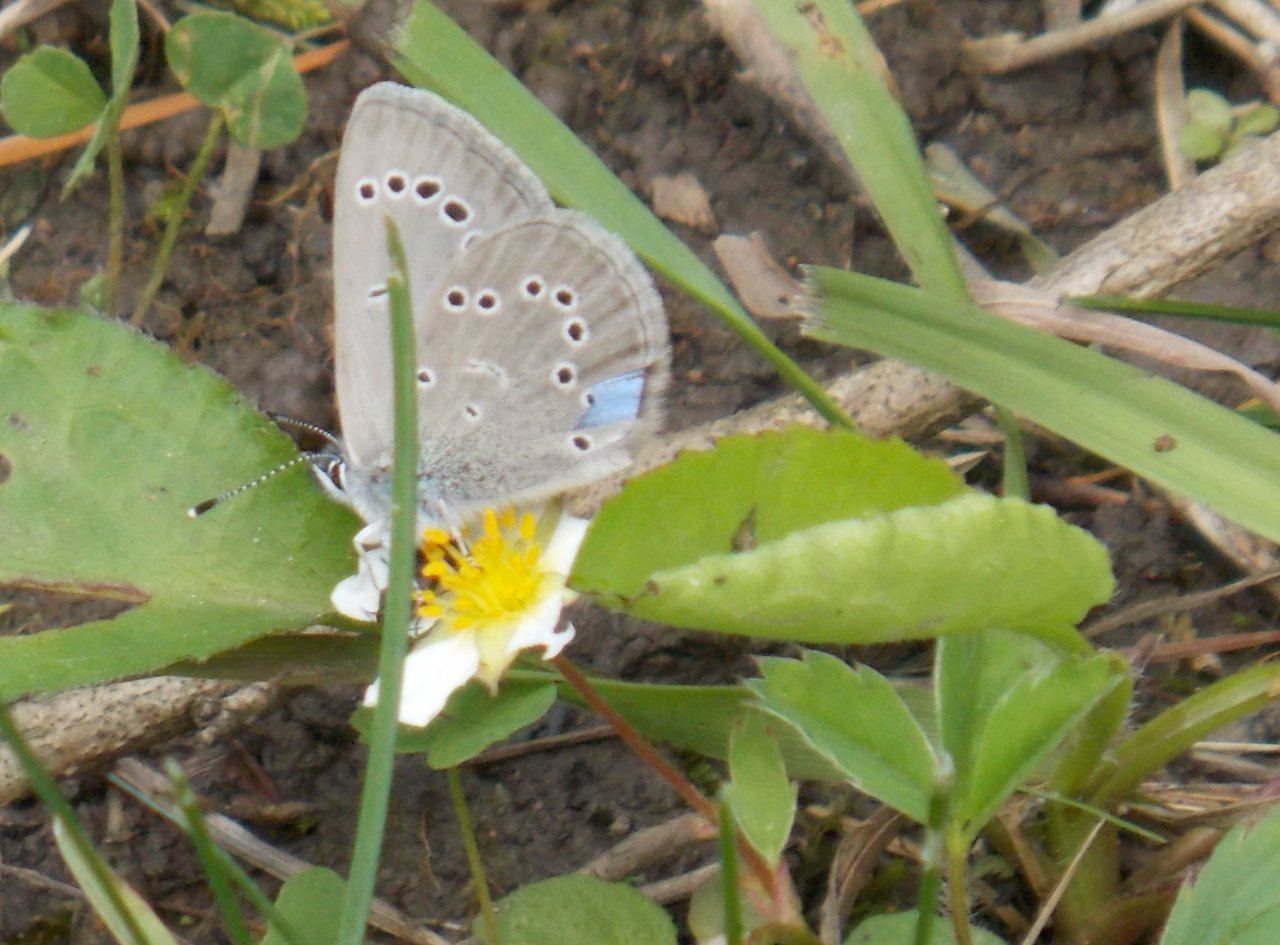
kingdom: Animalia
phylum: Arthropoda
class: Insecta
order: Lepidoptera
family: Lycaenidae
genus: Elkalyce
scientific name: Elkalyce comyntas
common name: Eastern Tailed-Blue
